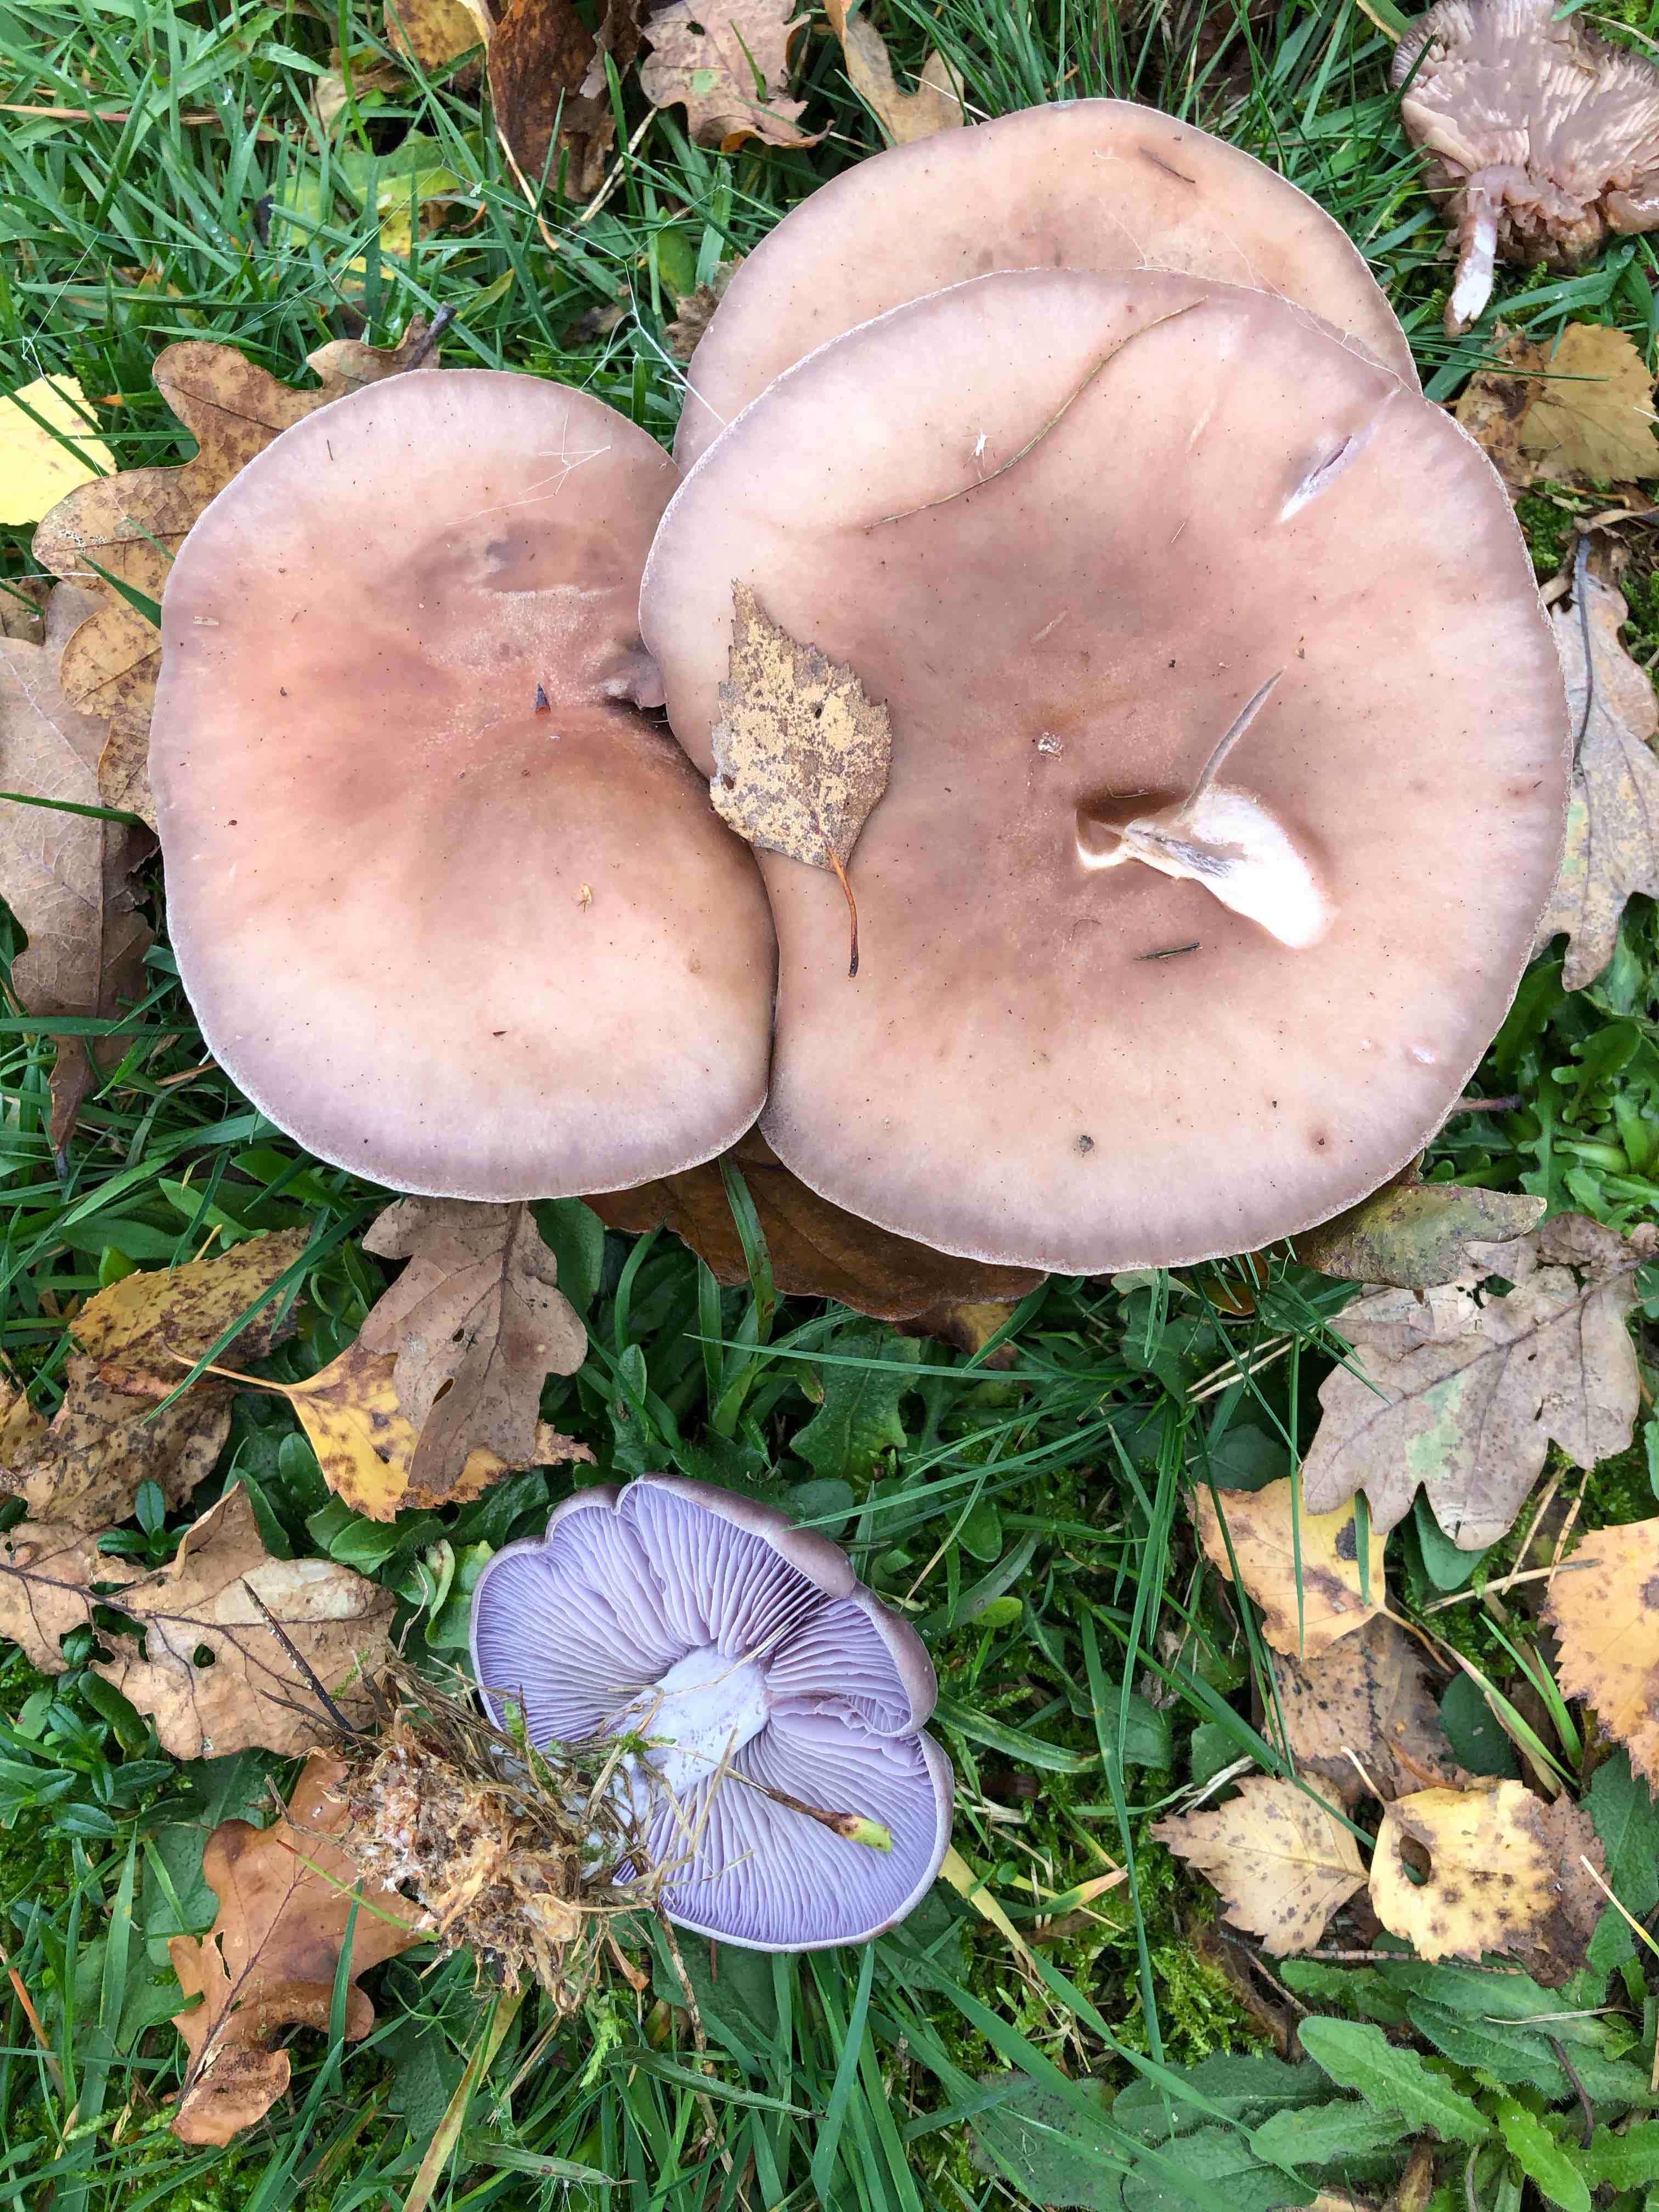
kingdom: Fungi
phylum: Basidiomycota
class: Agaricomycetes
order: Agaricales
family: Tricholomataceae
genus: Lepista
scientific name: Lepista nuda
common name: violet hekseringshat
